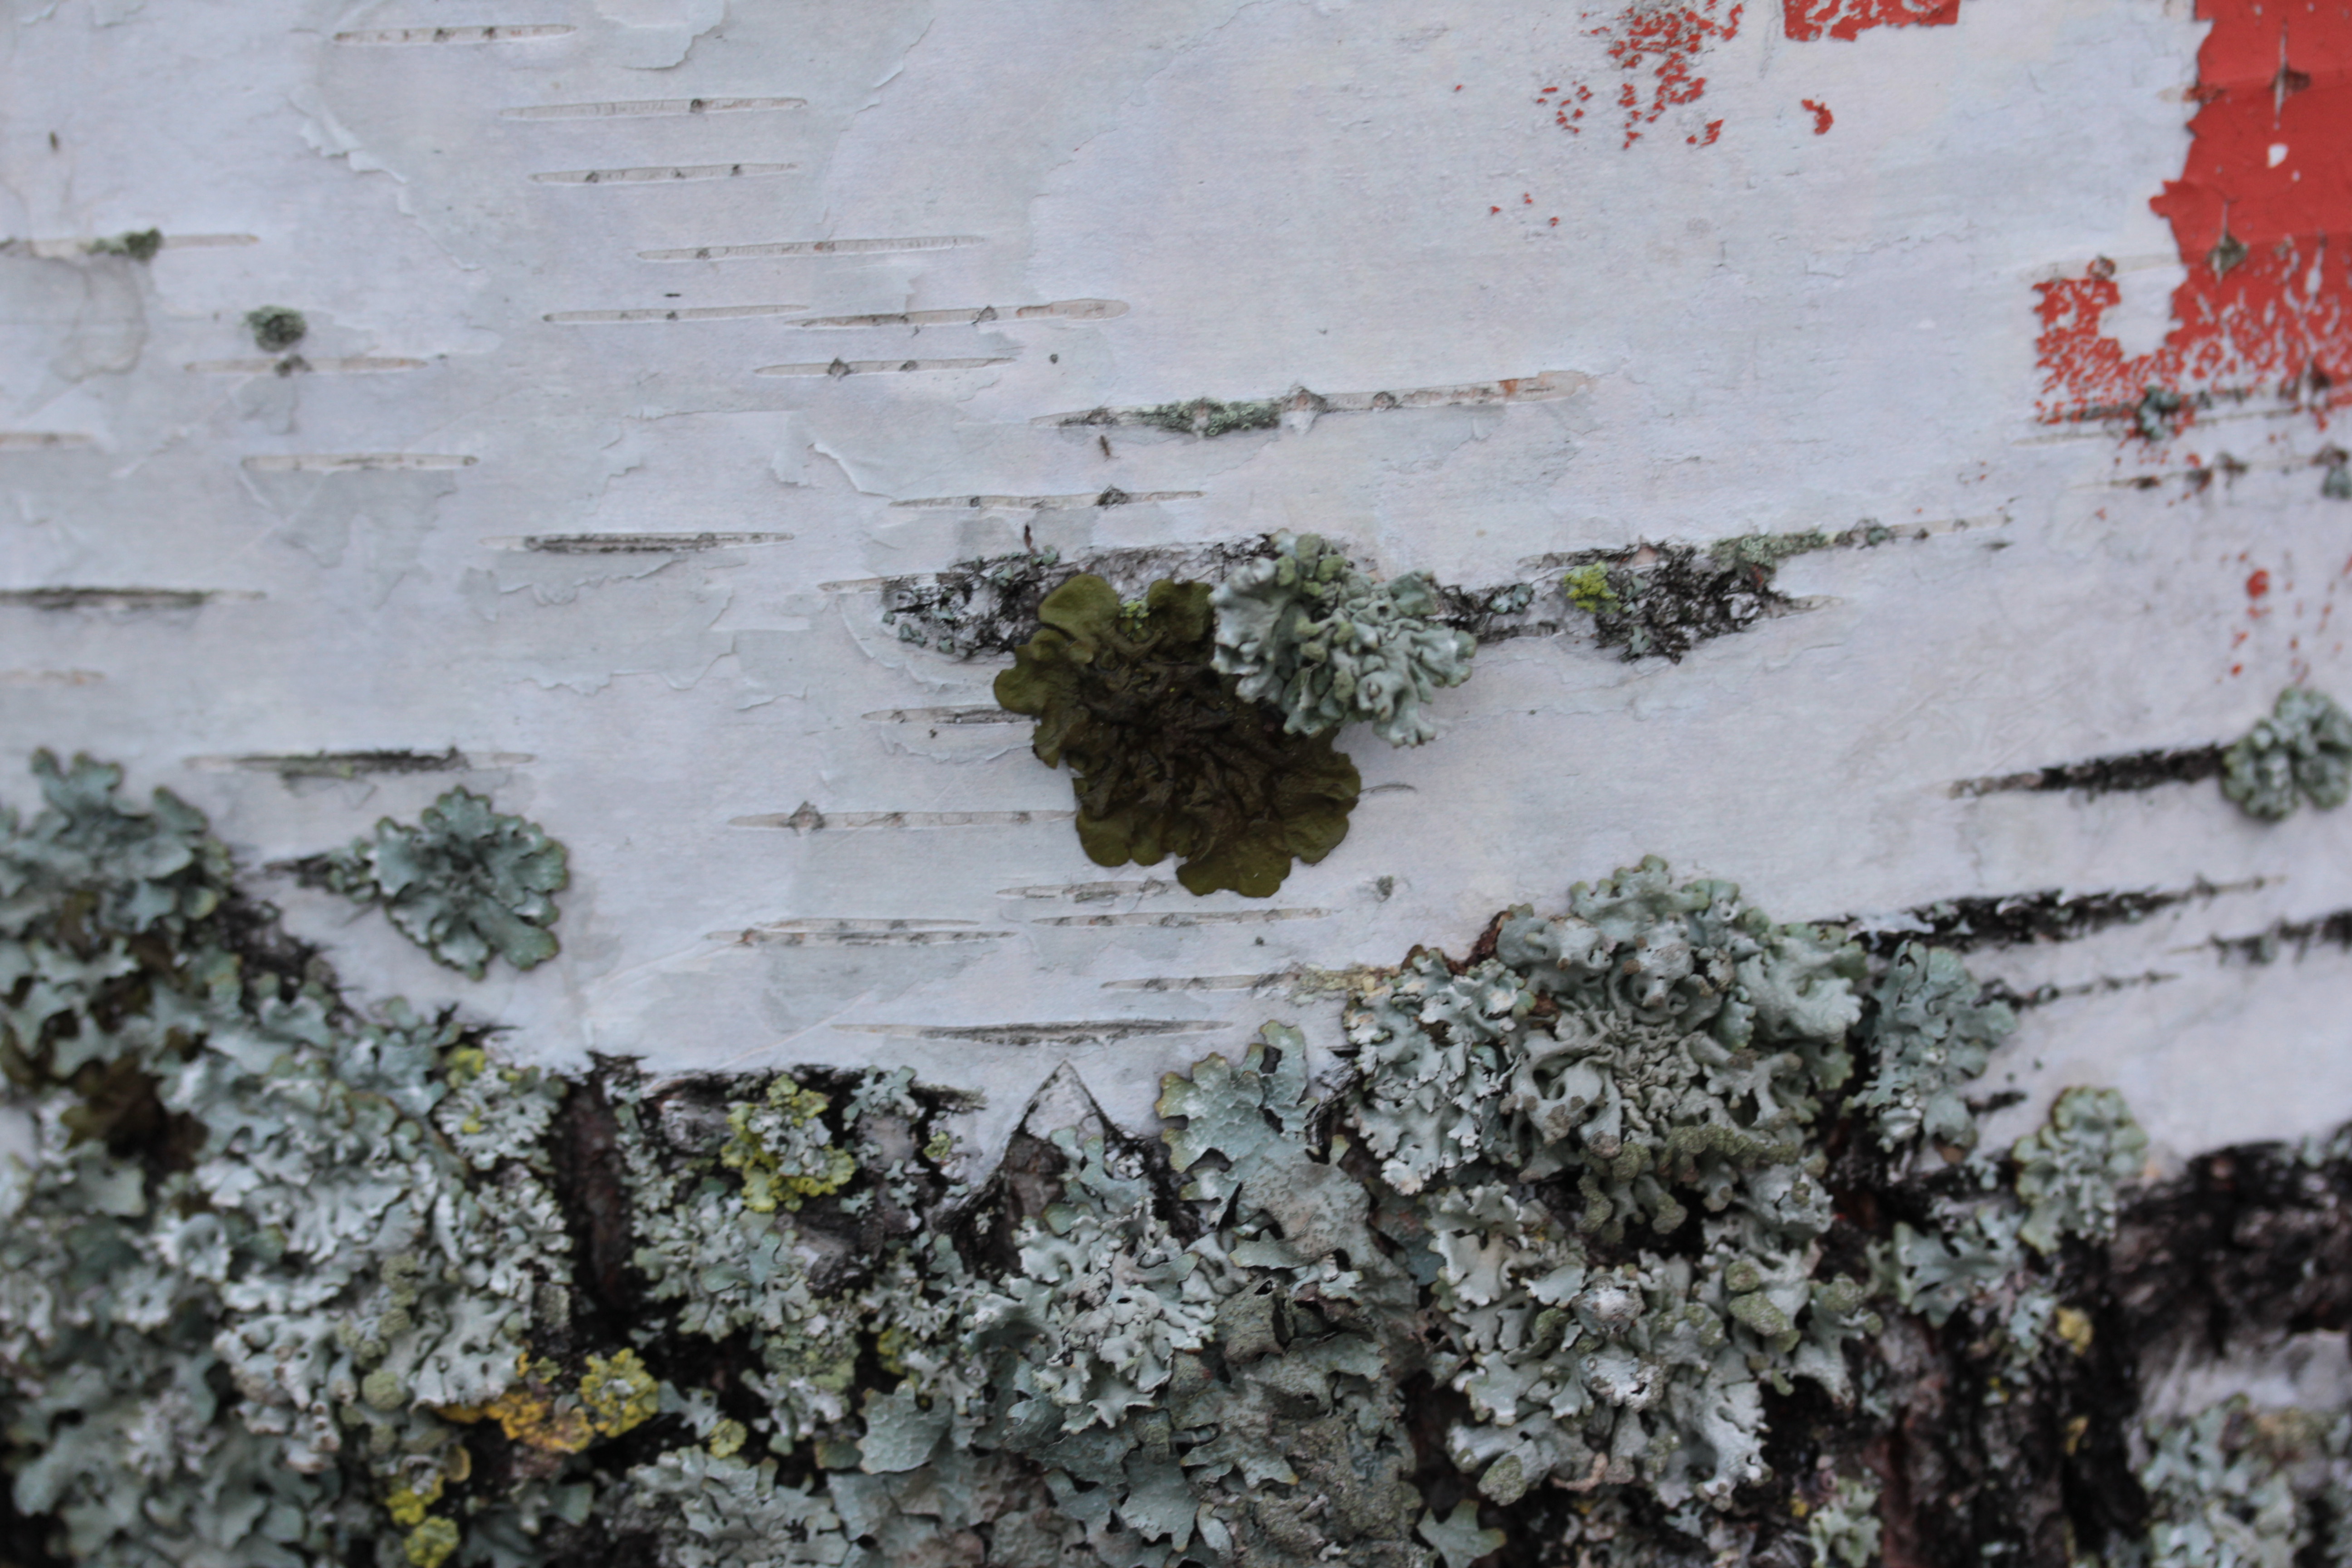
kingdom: Fungi
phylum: Ascomycota
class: Lecanoromycetes
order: Lecanorales
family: Parmeliaceae
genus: Melanohalea
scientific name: Melanohalea olivacea
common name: Spotted camouflage lichen
